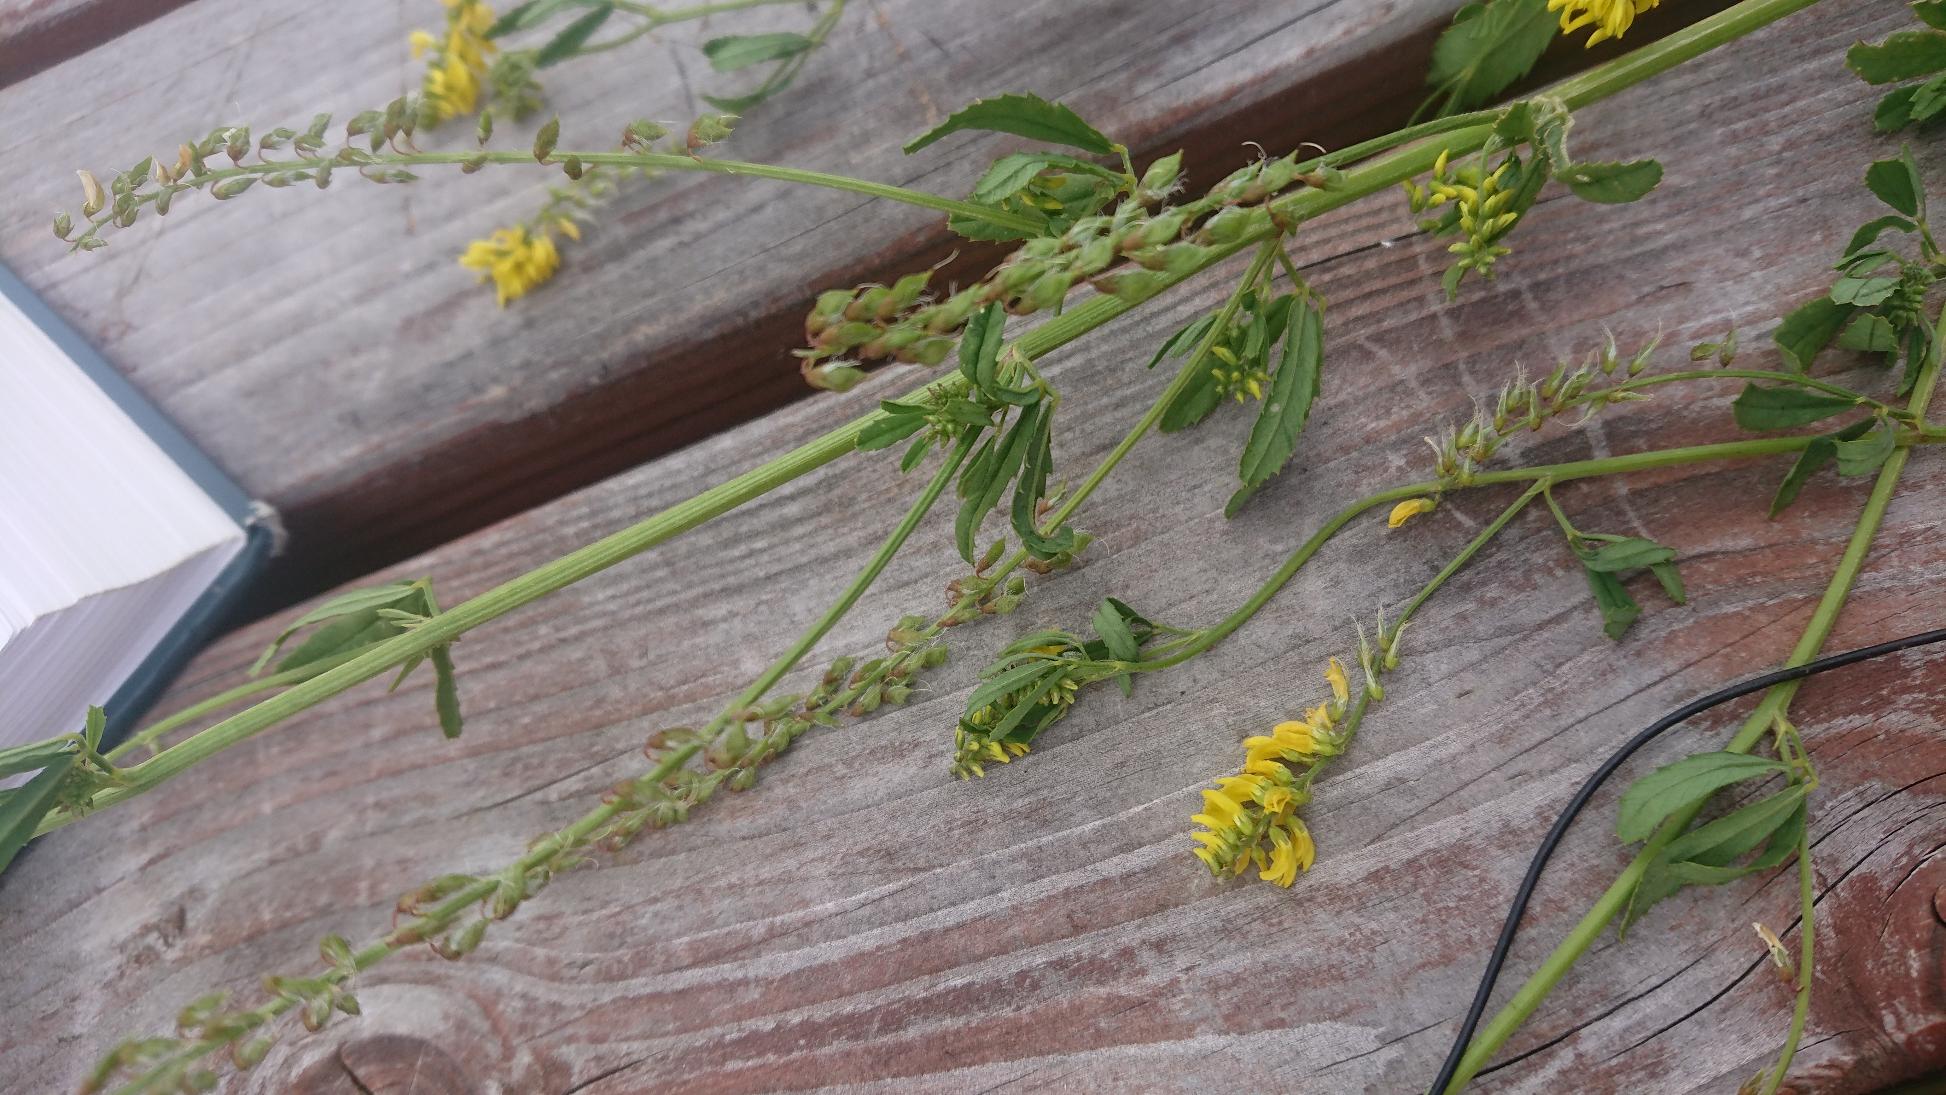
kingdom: Plantae
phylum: Tracheophyta
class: Magnoliopsida
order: Fabales
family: Fabaceae
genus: Melilotus
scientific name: Melilotus altissimus
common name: Høj stenkløver
